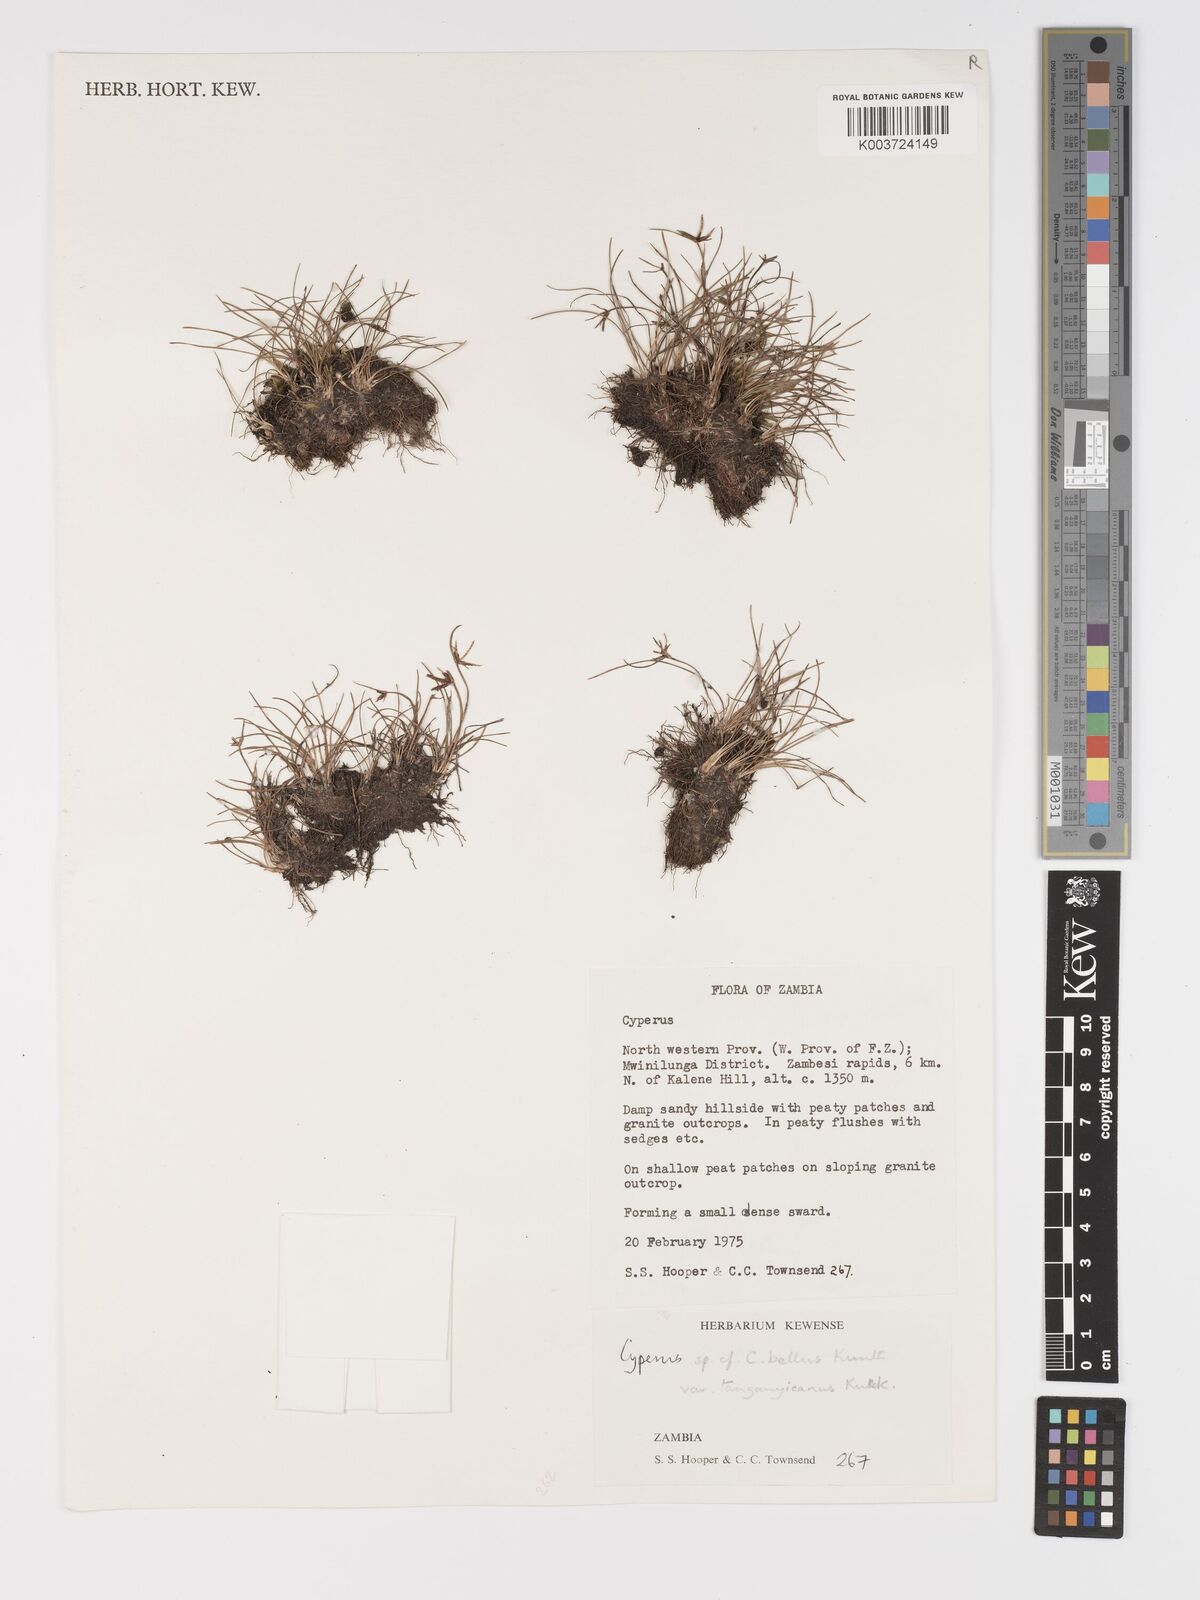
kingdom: Plantae
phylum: Tracheophyta
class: Liliopsida
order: Poales
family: Cyperaceae
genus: Cyperus
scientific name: Cyperus semitrifidus
